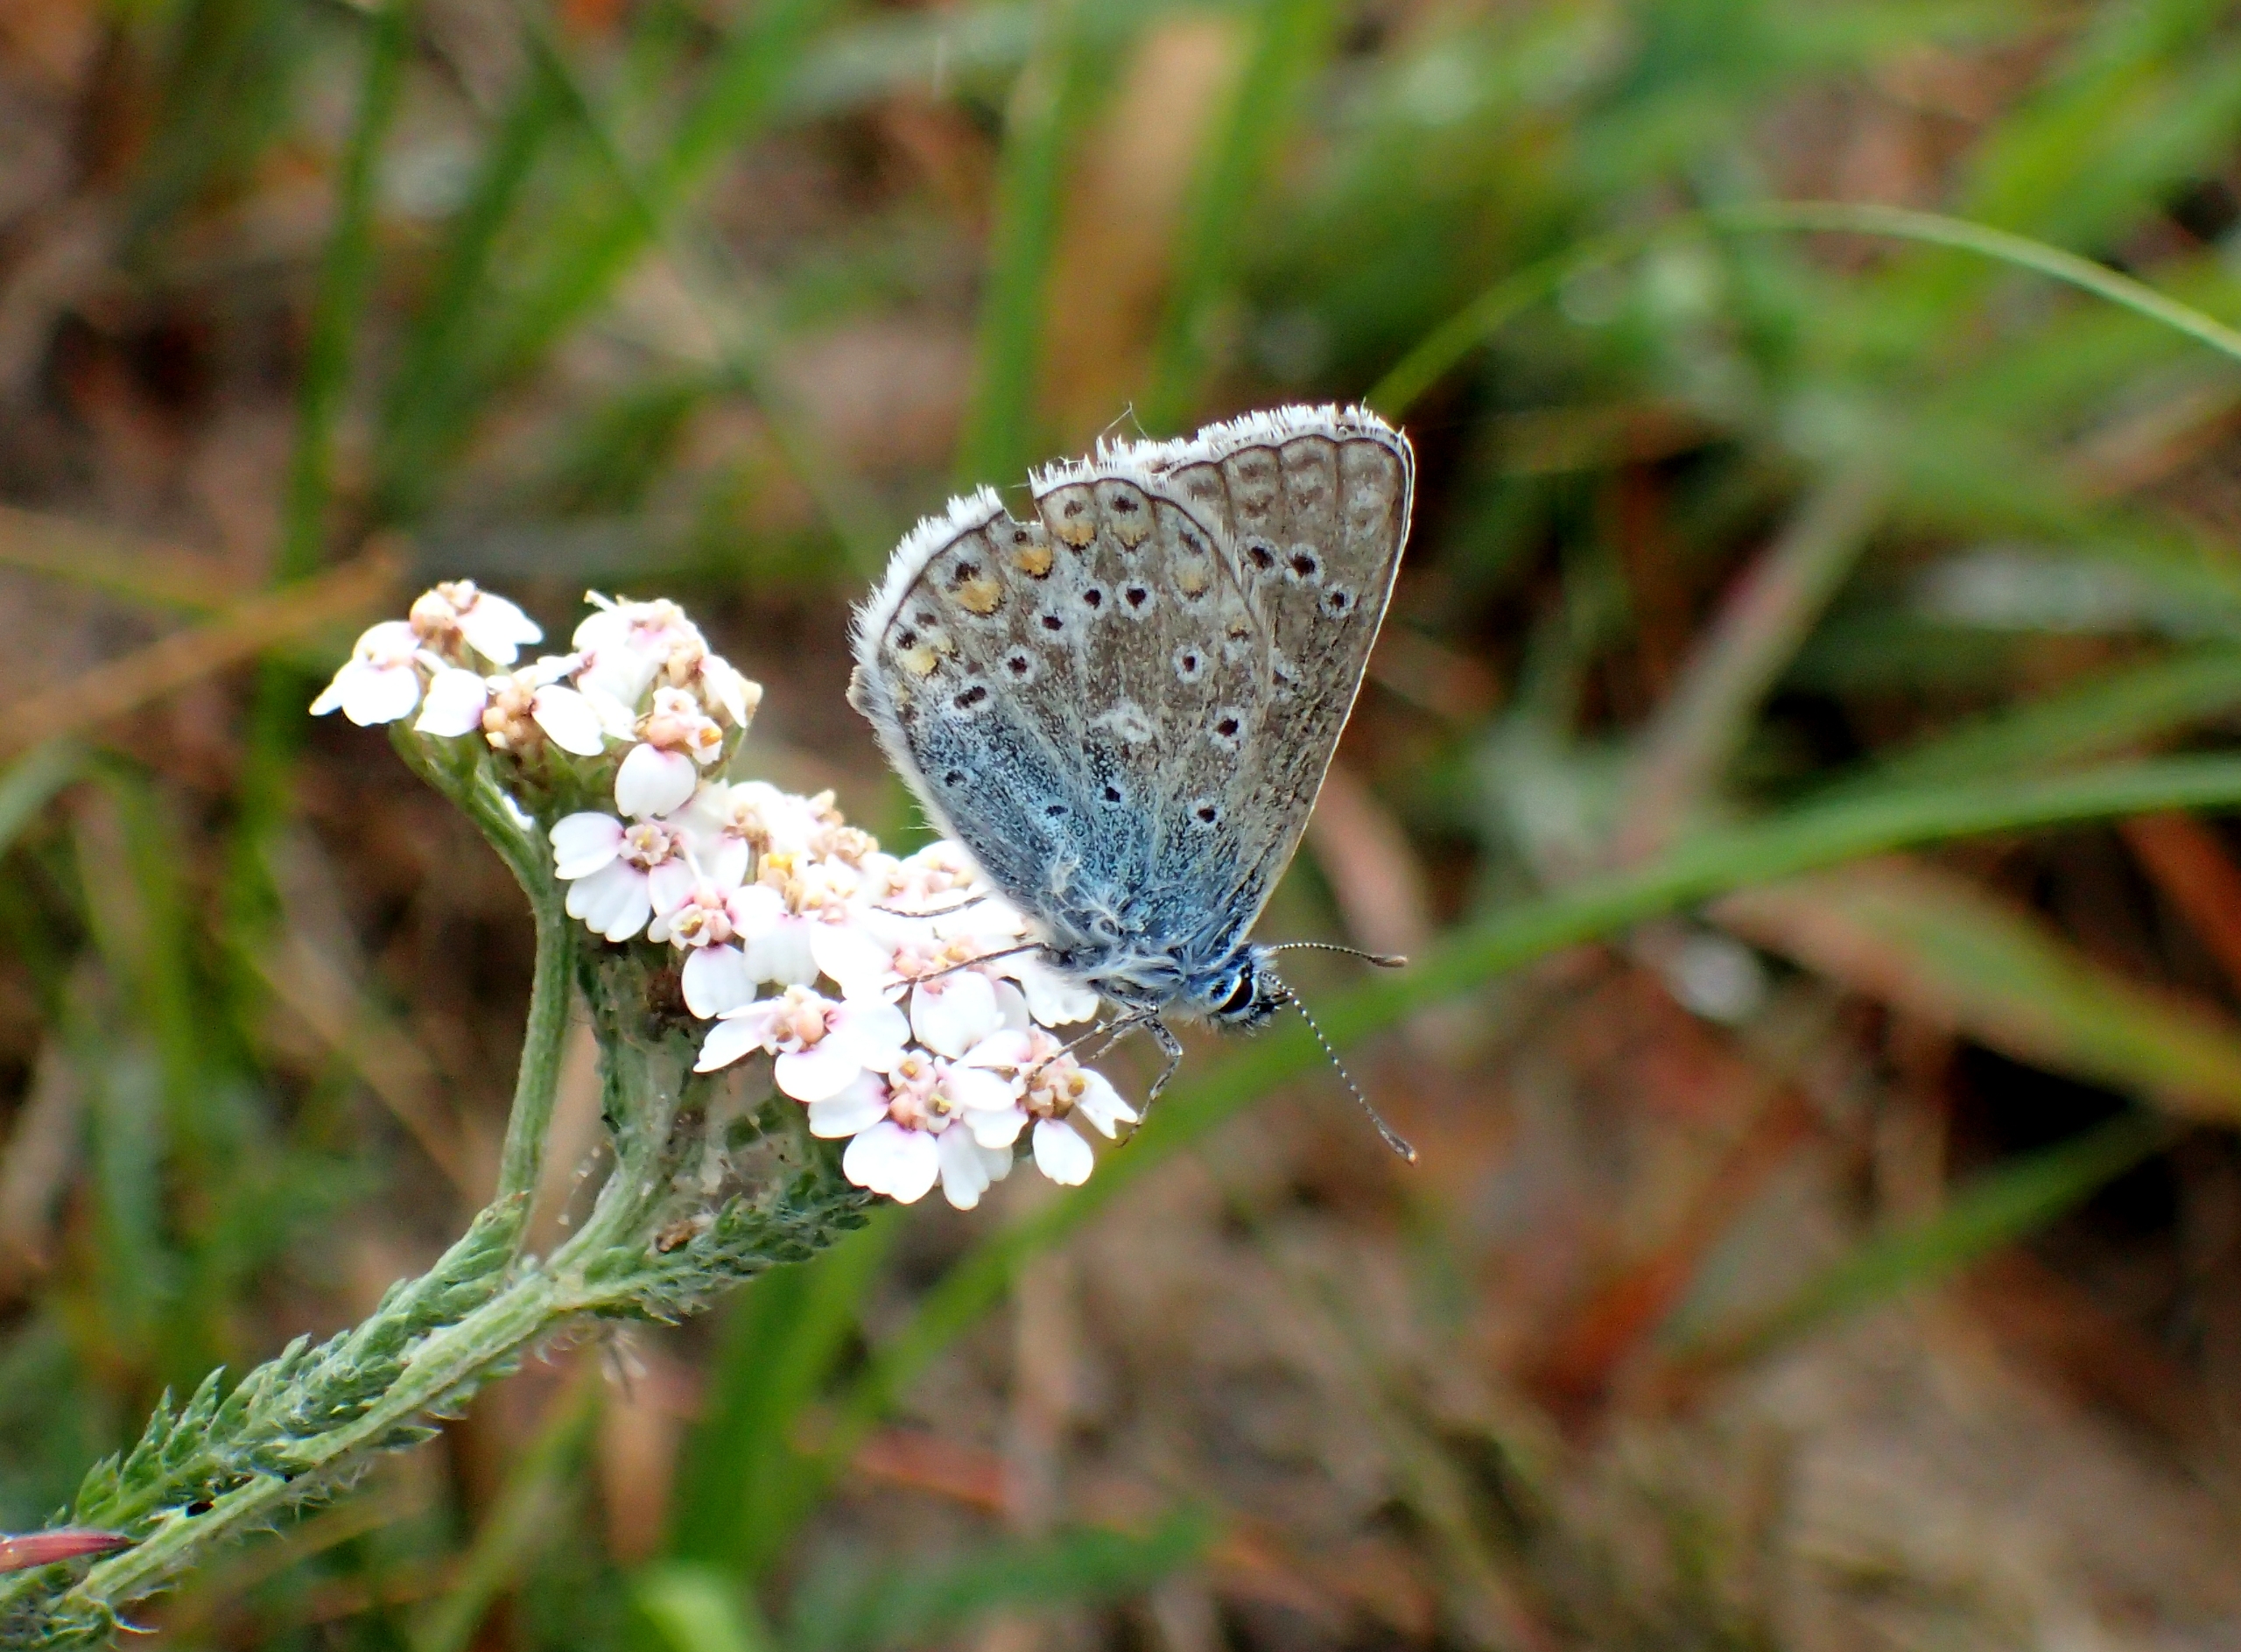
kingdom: Animalia
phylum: Arthropoda
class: Insecta
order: Lepidoptera
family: Lycaenidae
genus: Polyommatus
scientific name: Polyommatus icarus
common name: Almindelig blåfugl
